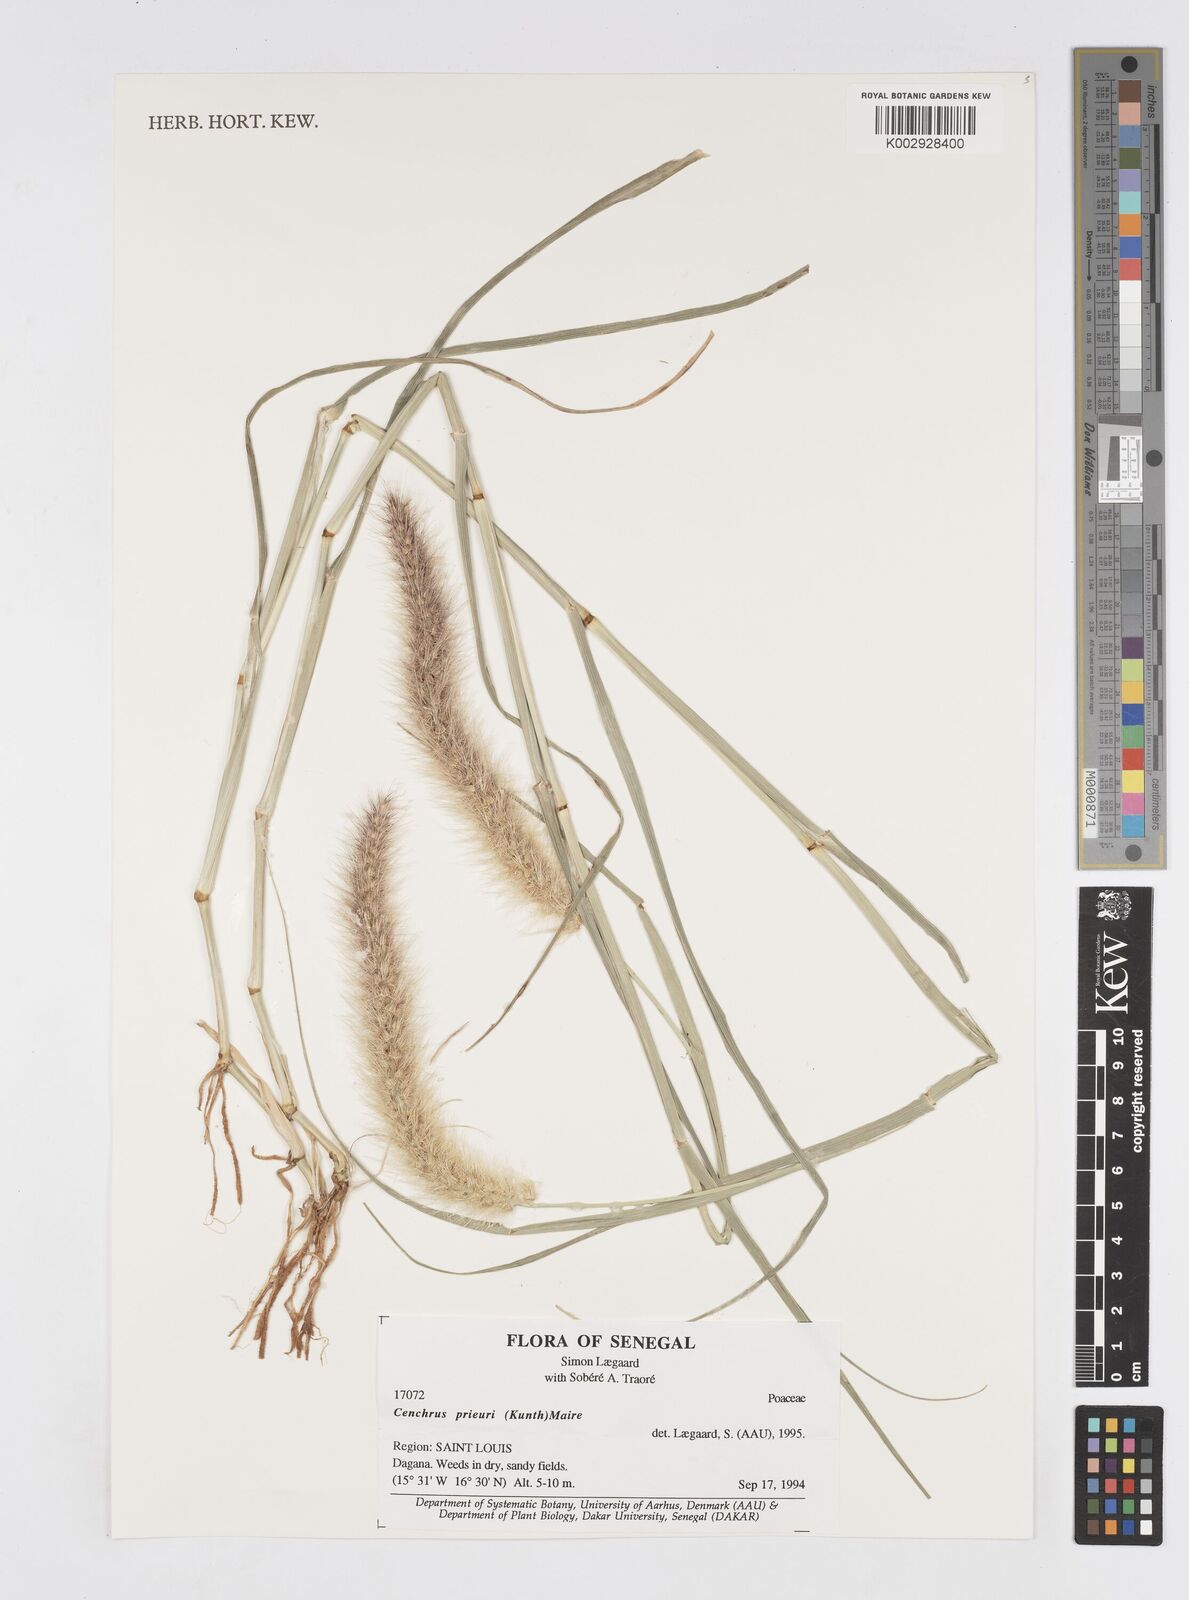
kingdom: Plantae
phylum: Tracheophyta
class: Liliopsida
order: Poales
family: Poaceae
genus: Cenchrus
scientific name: Cenchrus prieurii
